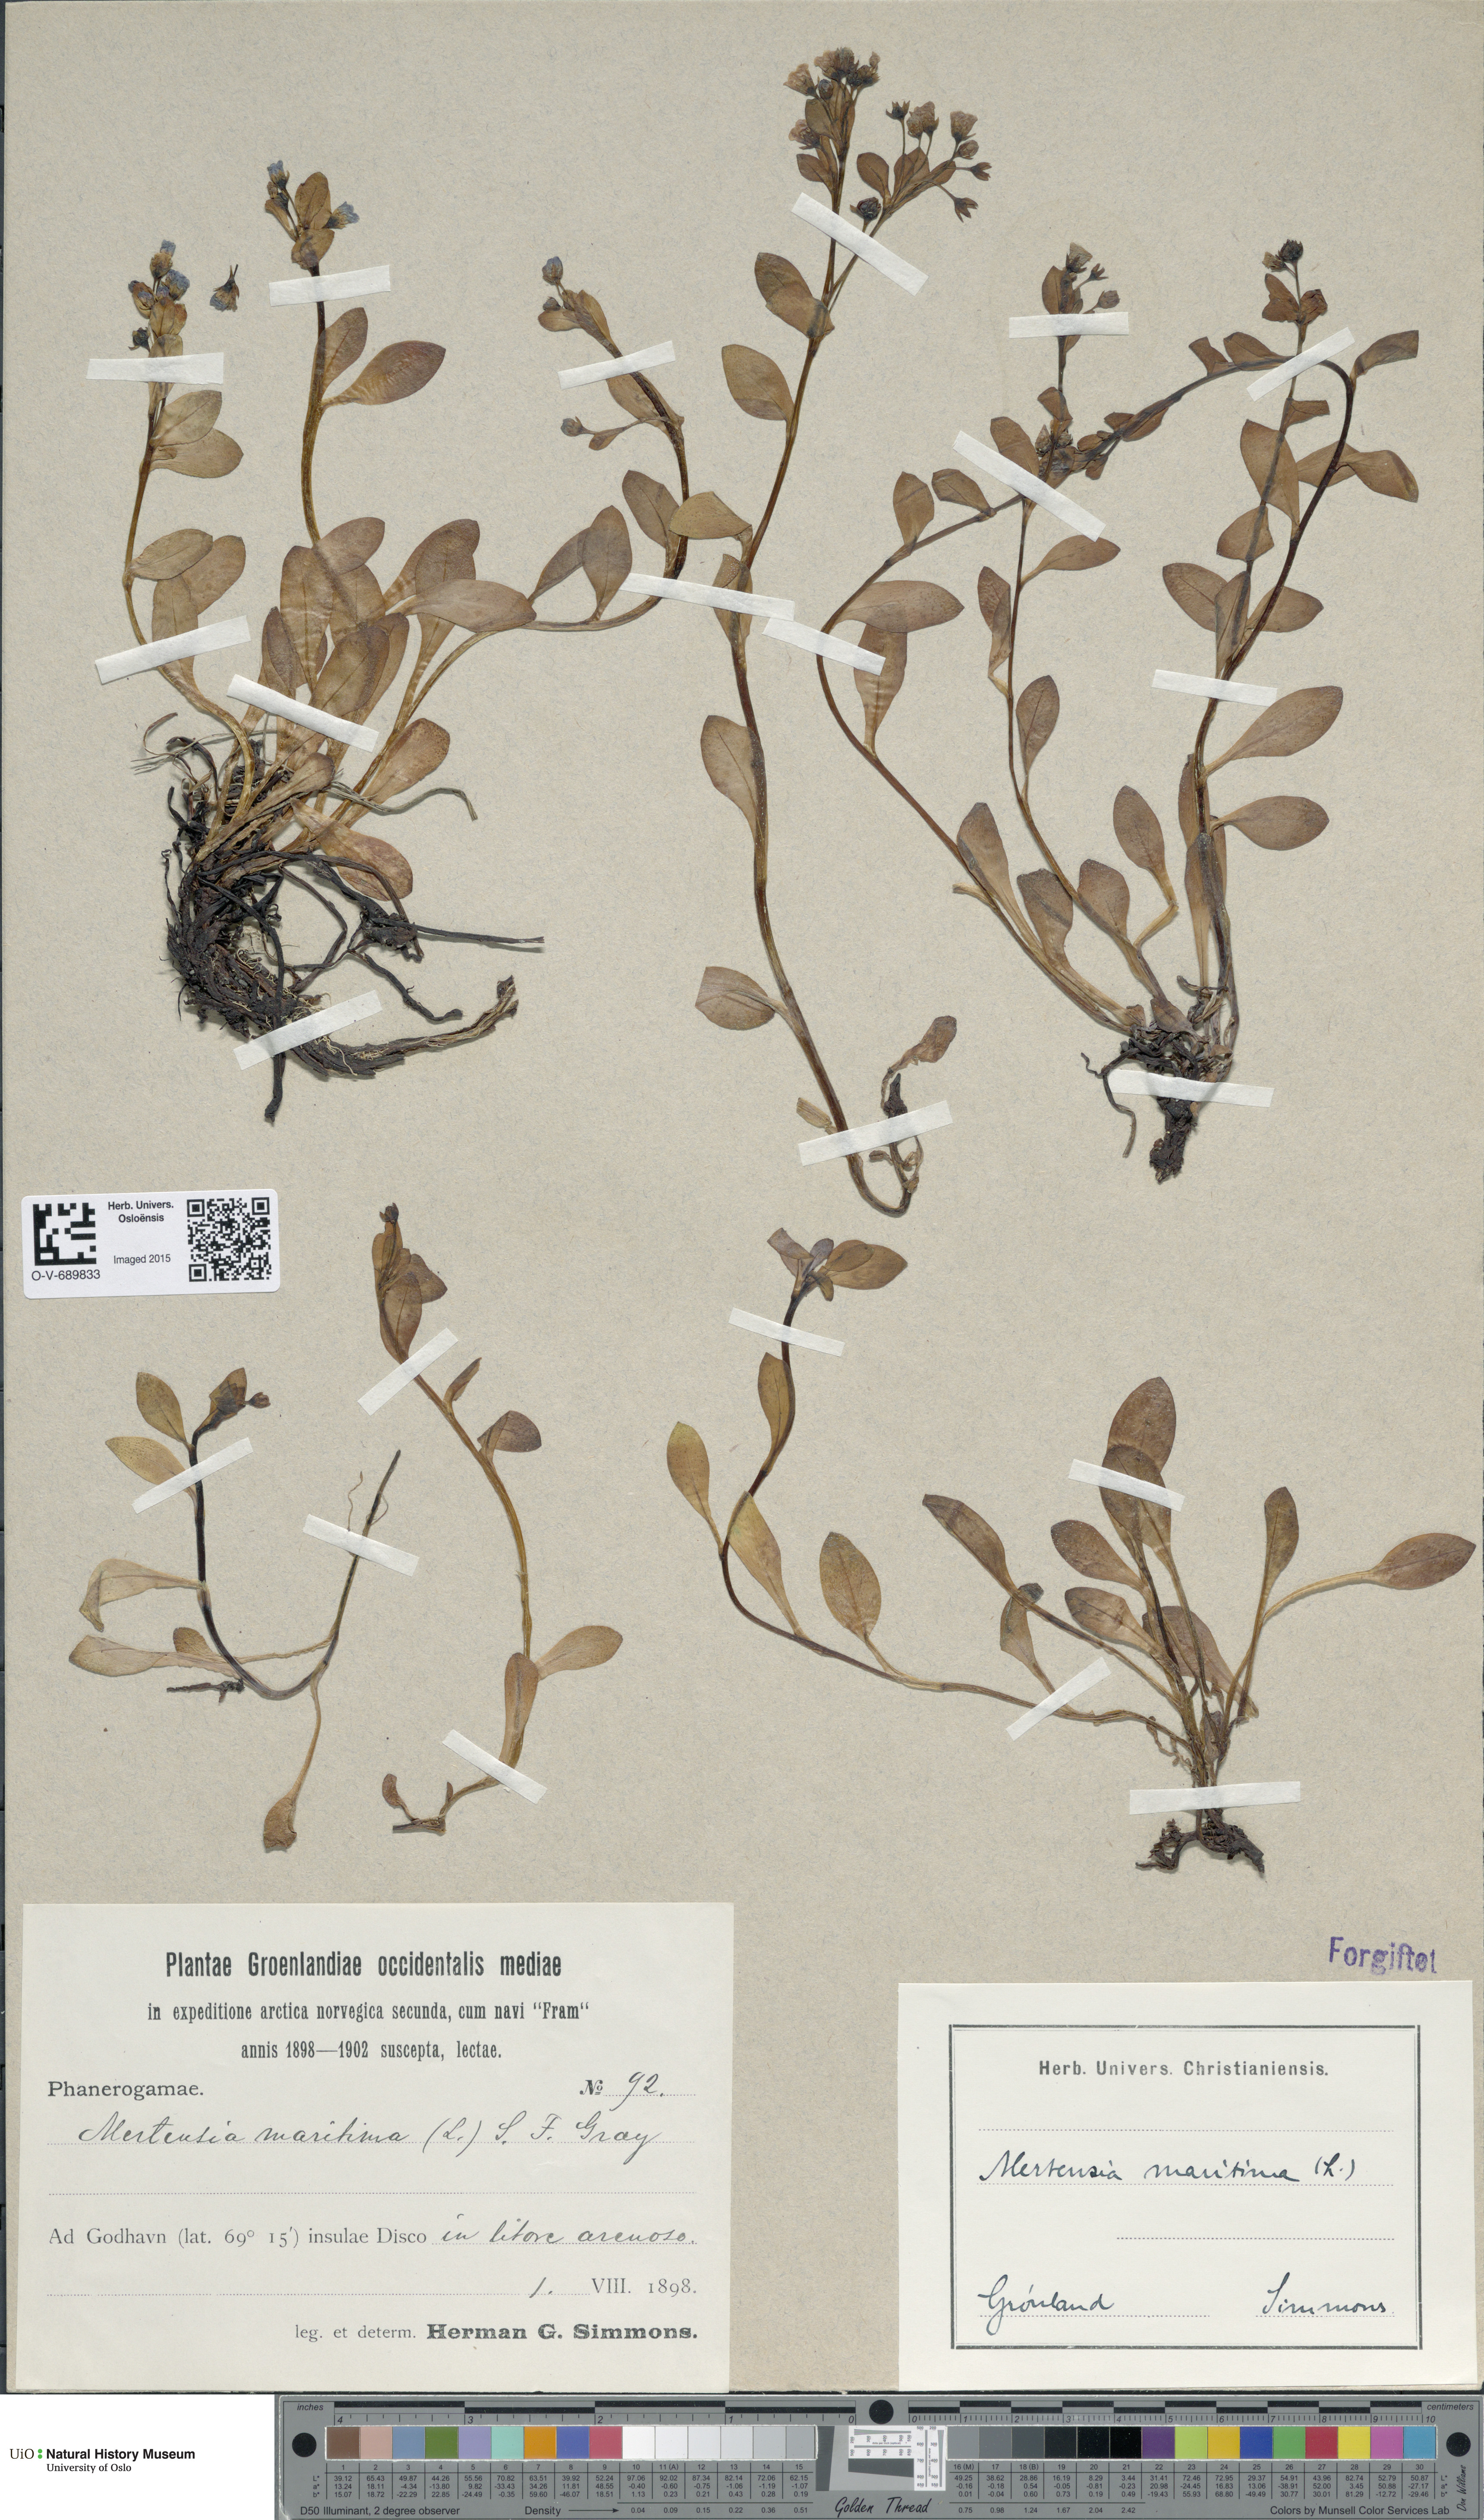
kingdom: Plantae
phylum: Tracheophyta
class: Magnoliopsida
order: Boraginales
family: Boraginaceae
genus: Mertensia
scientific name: Mertensia maritima
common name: Oysterplant
